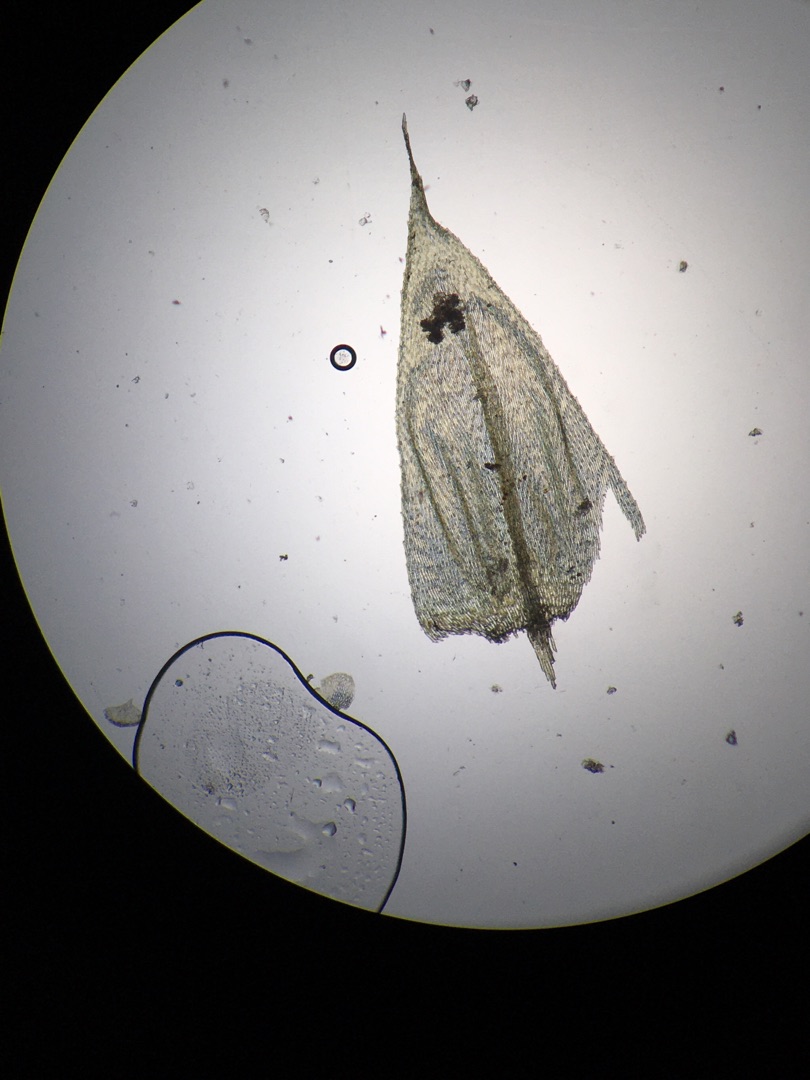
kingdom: Plantae
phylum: Bryophyta
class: Bryopsida
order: Hypnales
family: Brachytheciaceae
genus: Brachythecium
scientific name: Brachythecium rutabulum
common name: Almindelig kortkapsel
